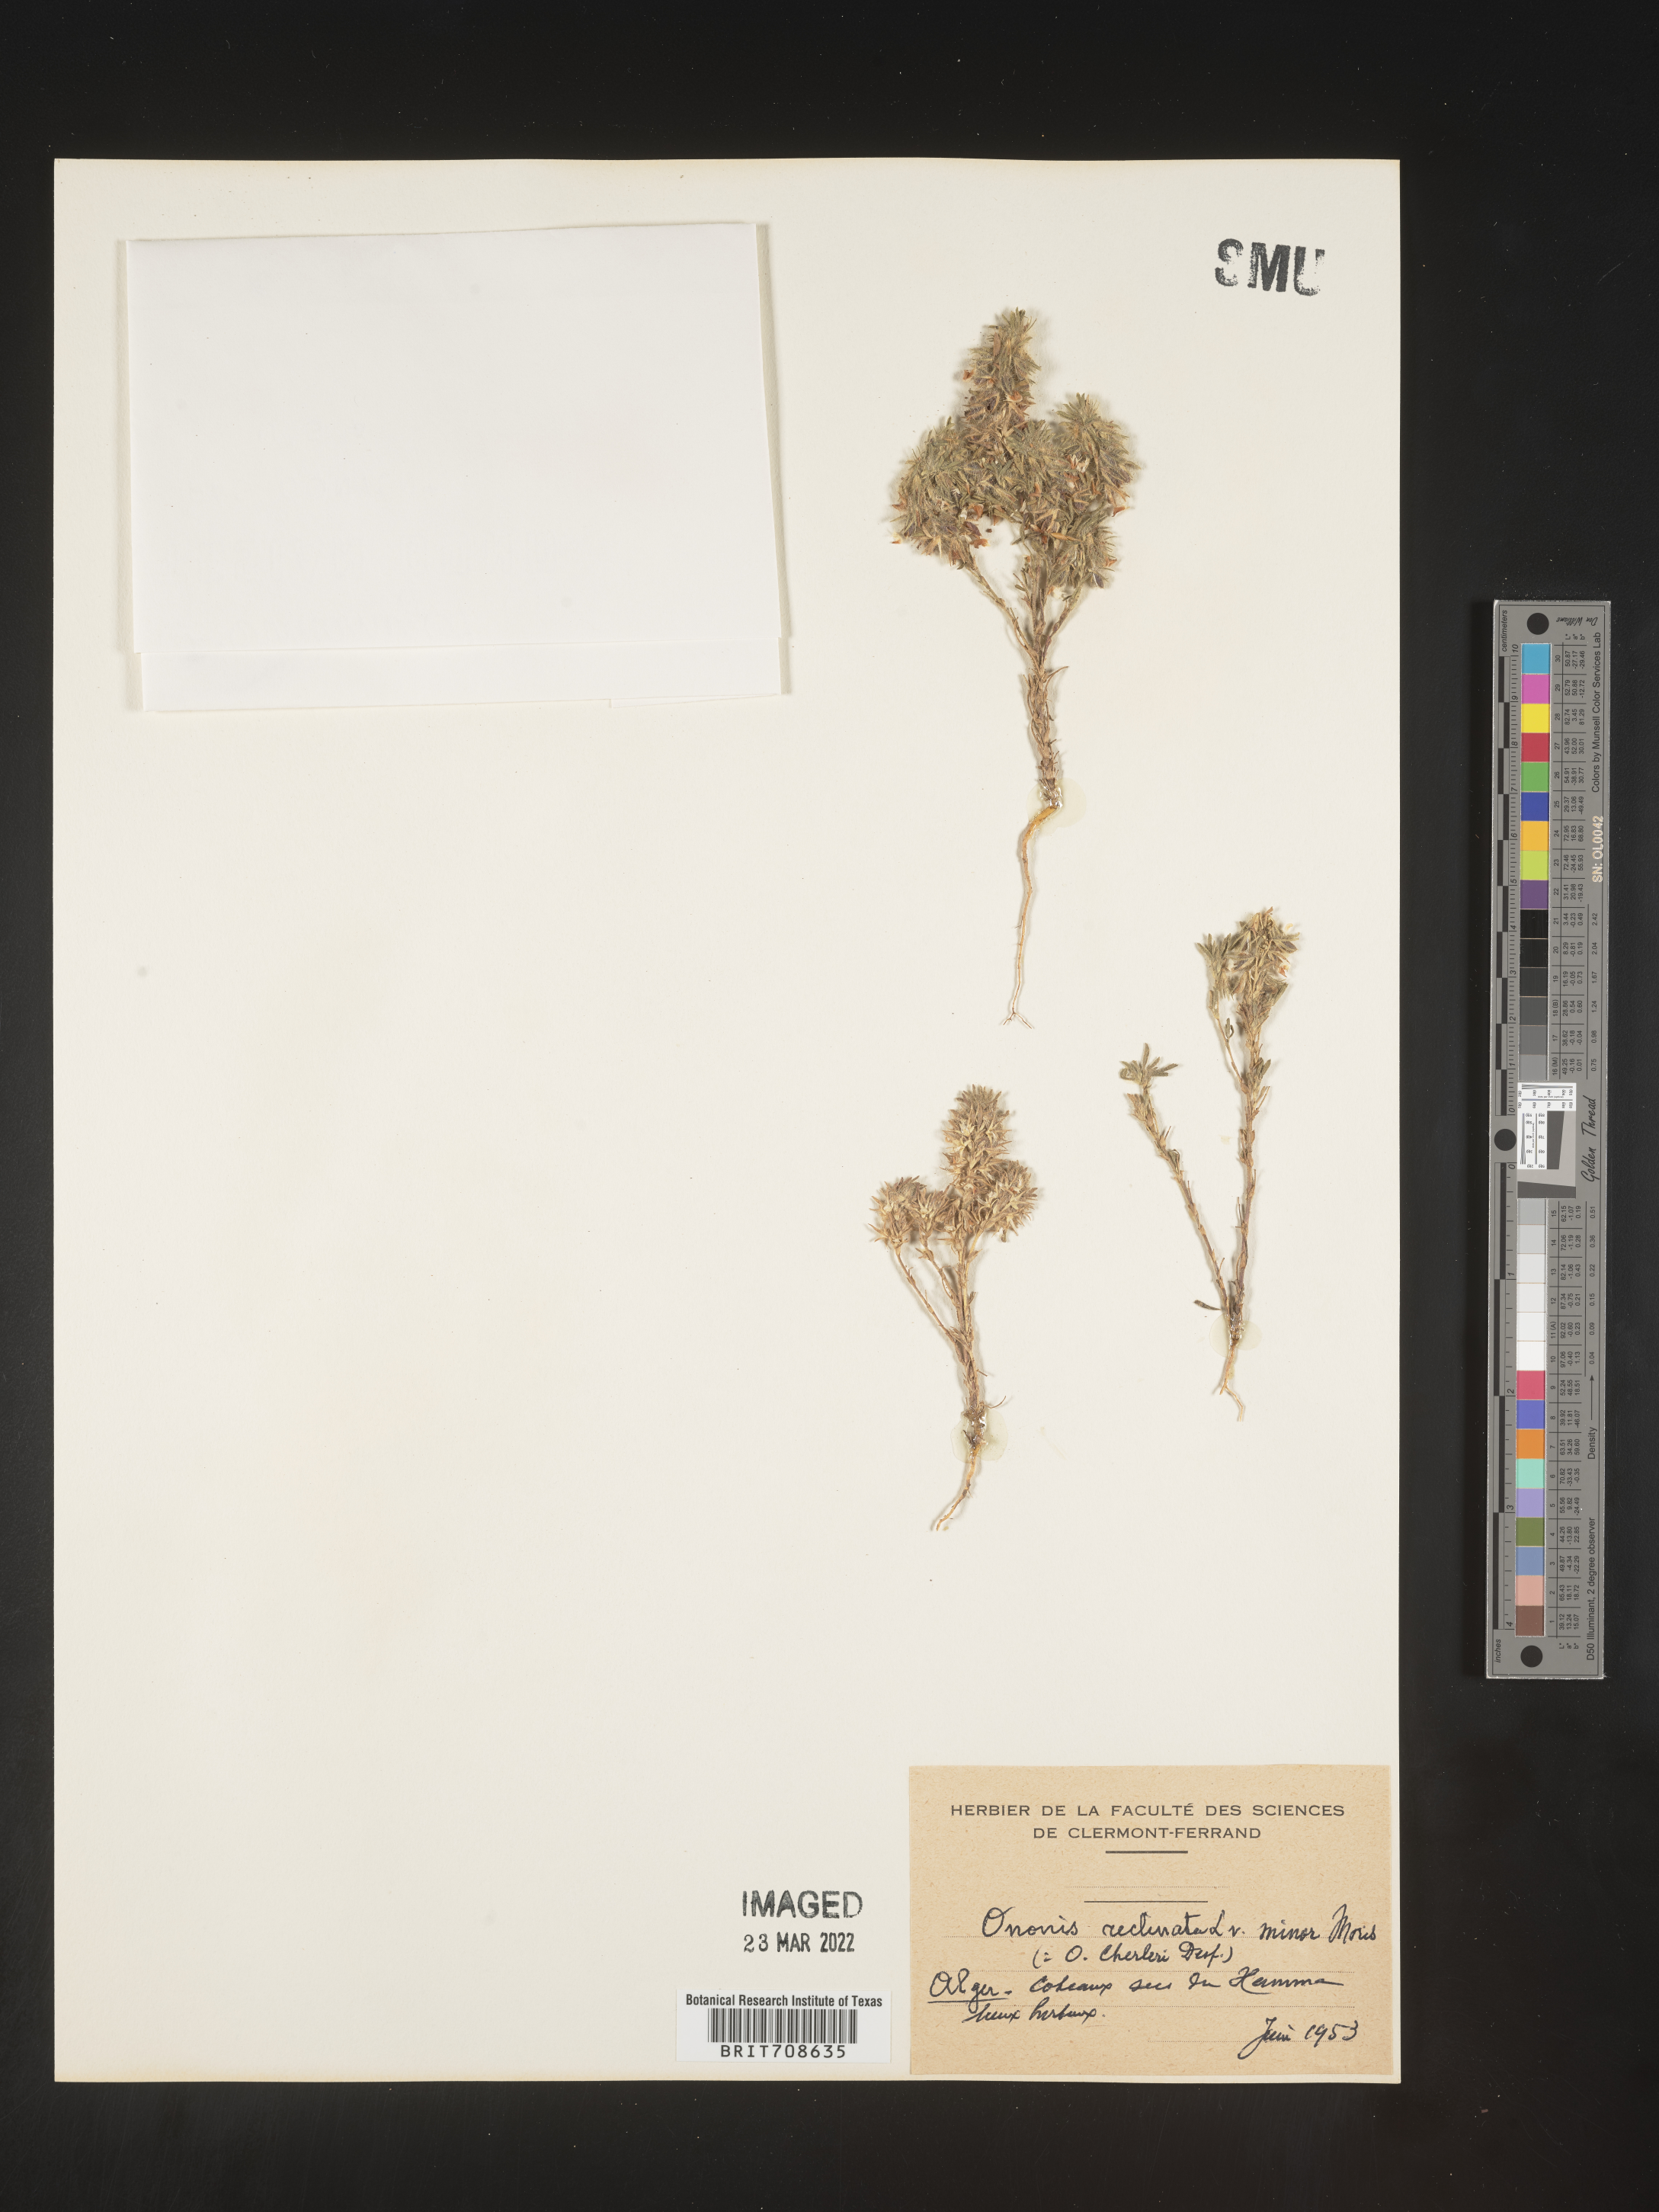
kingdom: Plantae
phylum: Tracheophyta
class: Magnoliopsida
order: Fabales
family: Fabaceae
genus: Ononis
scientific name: Ononis
